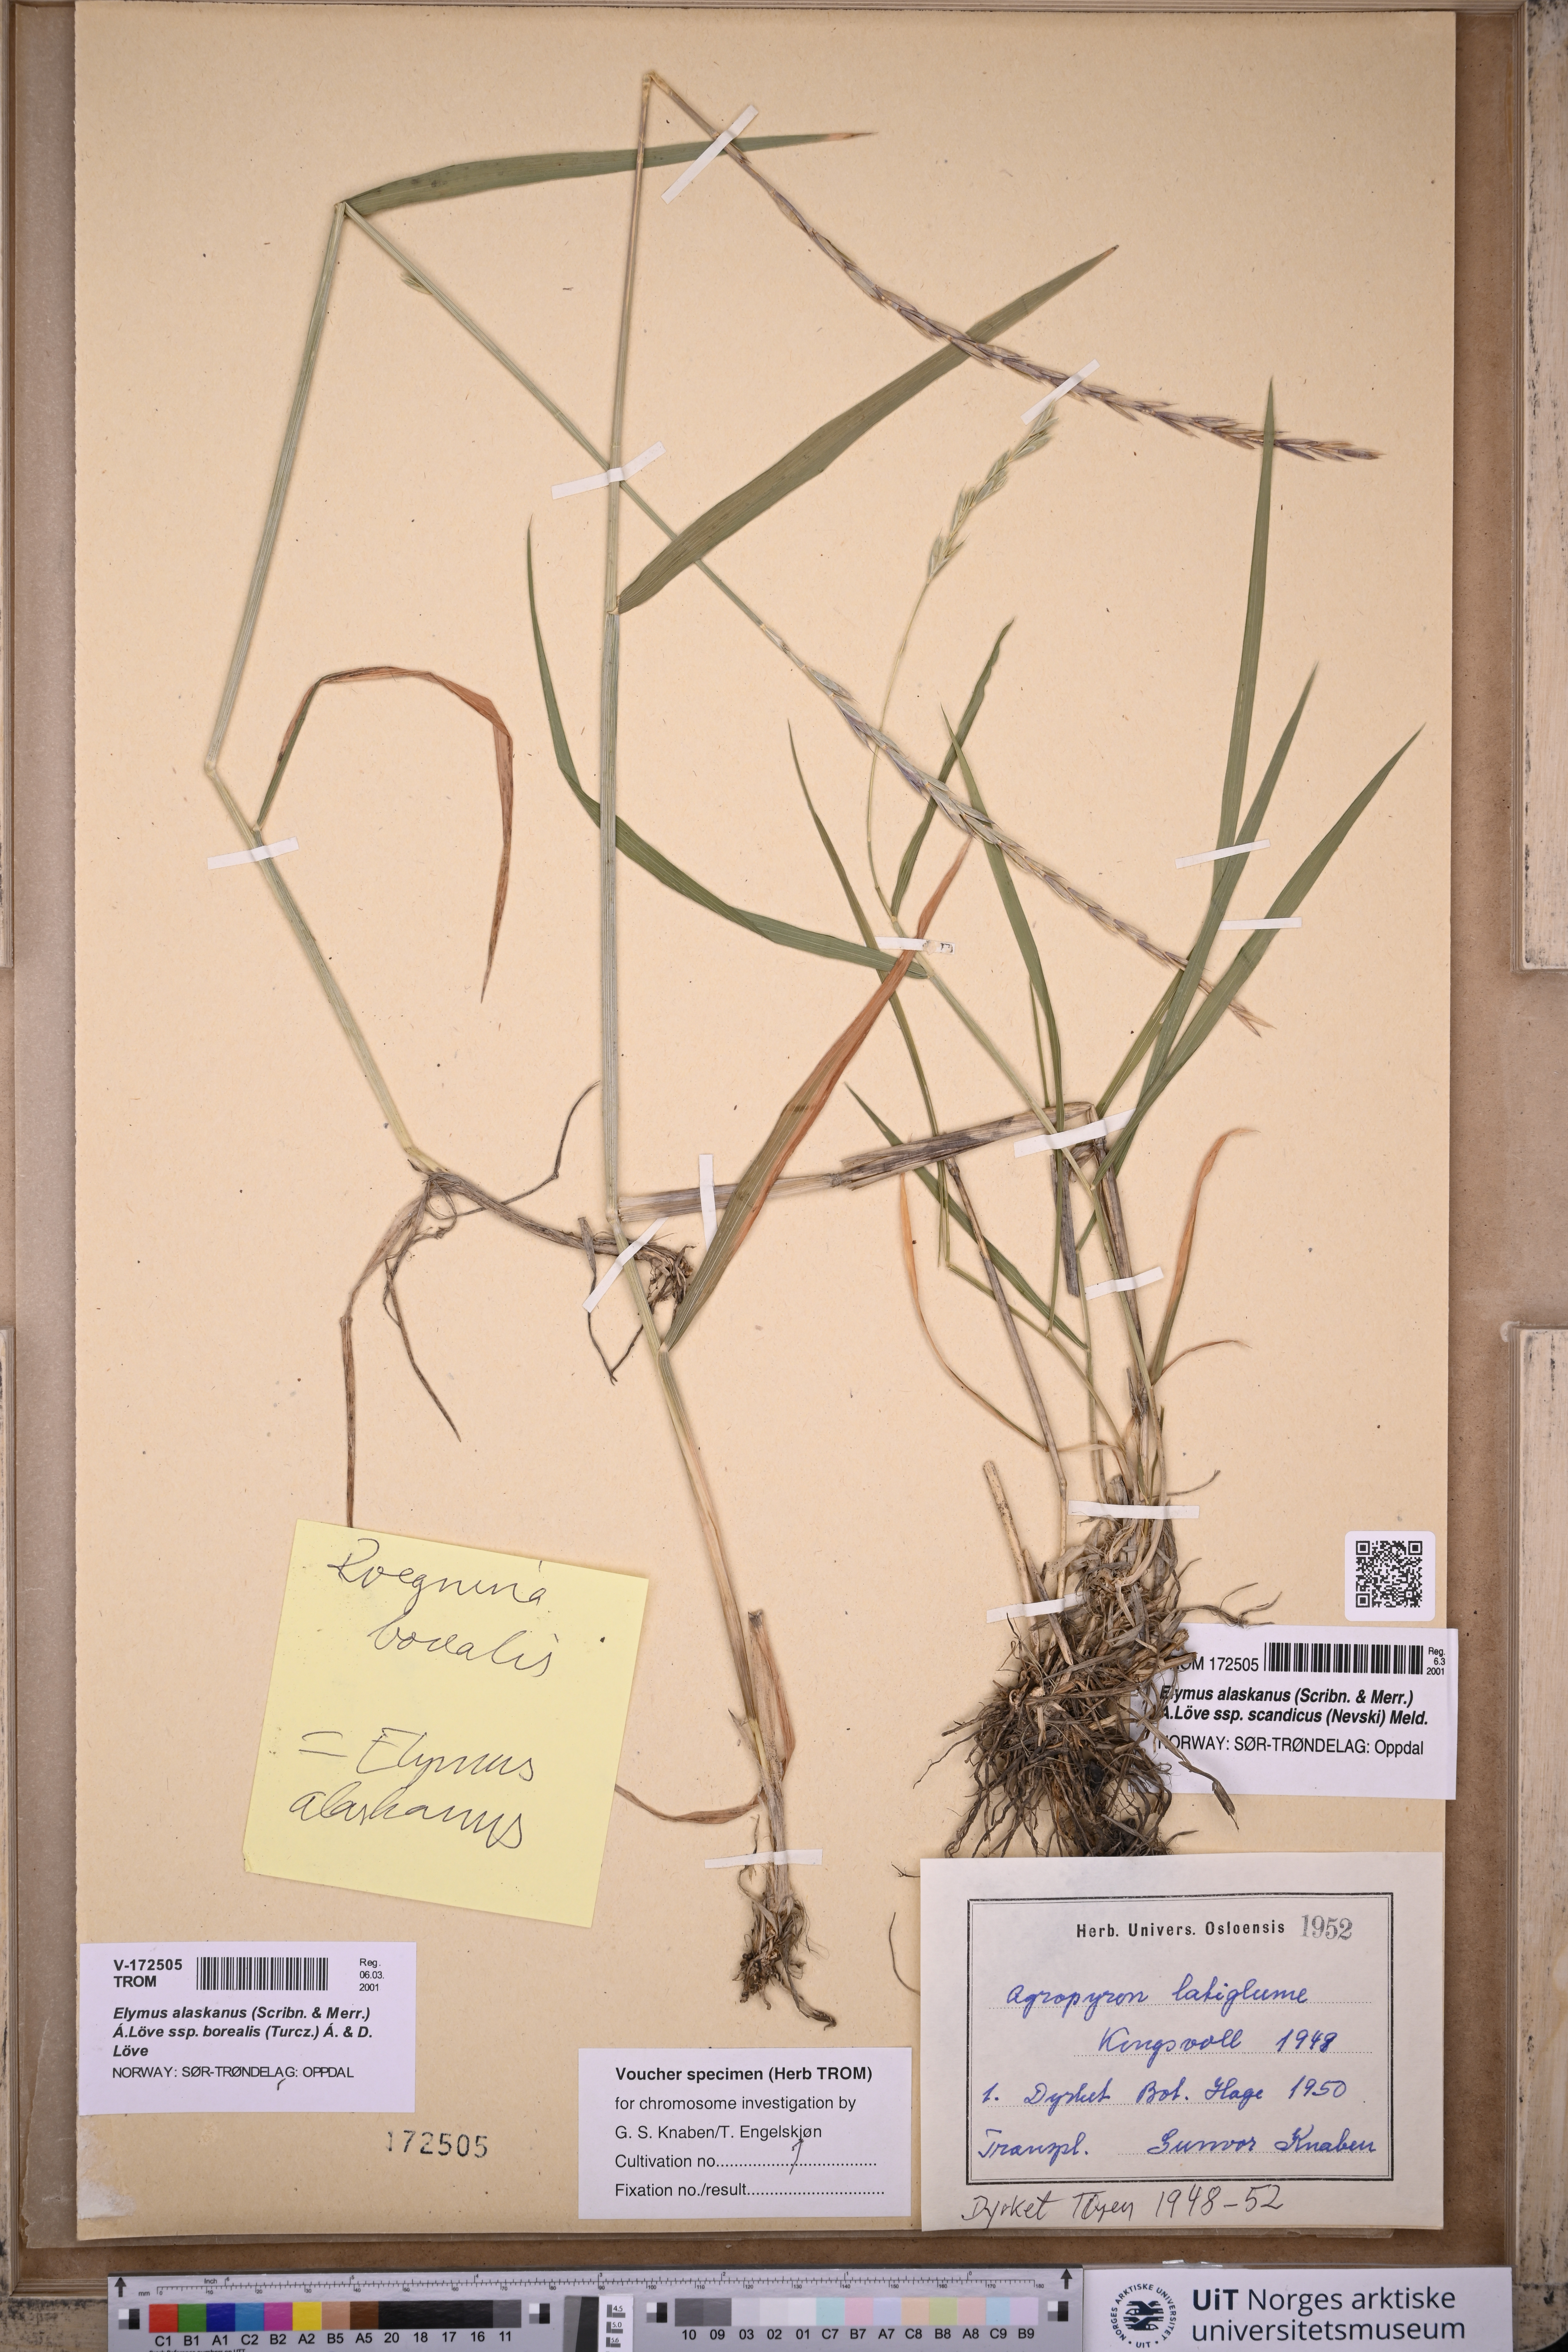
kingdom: Plantae
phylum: Tracheophyta
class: Liliopsida
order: Poales
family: Poaceae
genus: Elymus
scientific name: Elymus macrourus
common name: Northern wheatgrass
